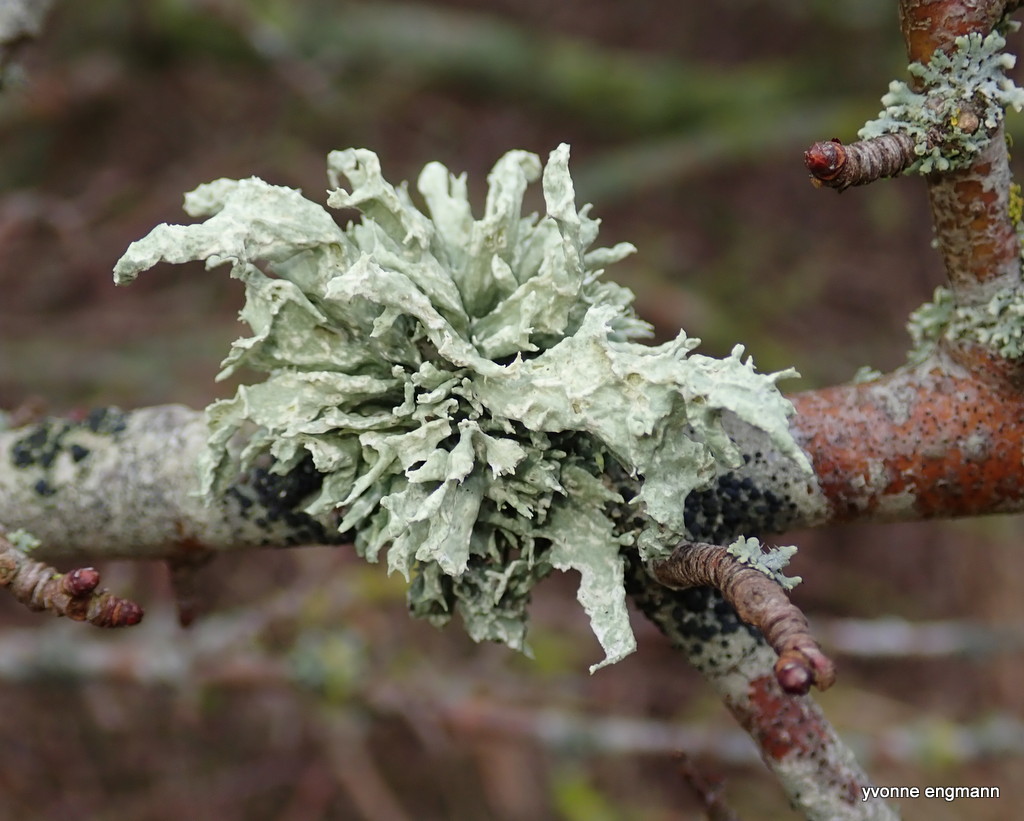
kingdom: Fungi
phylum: Ascomycota
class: Lecanoromycetes
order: Lecanorales
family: Ramalinaceae
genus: Ramalina
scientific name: Ramalina fastigiata
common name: tue-grenlav
